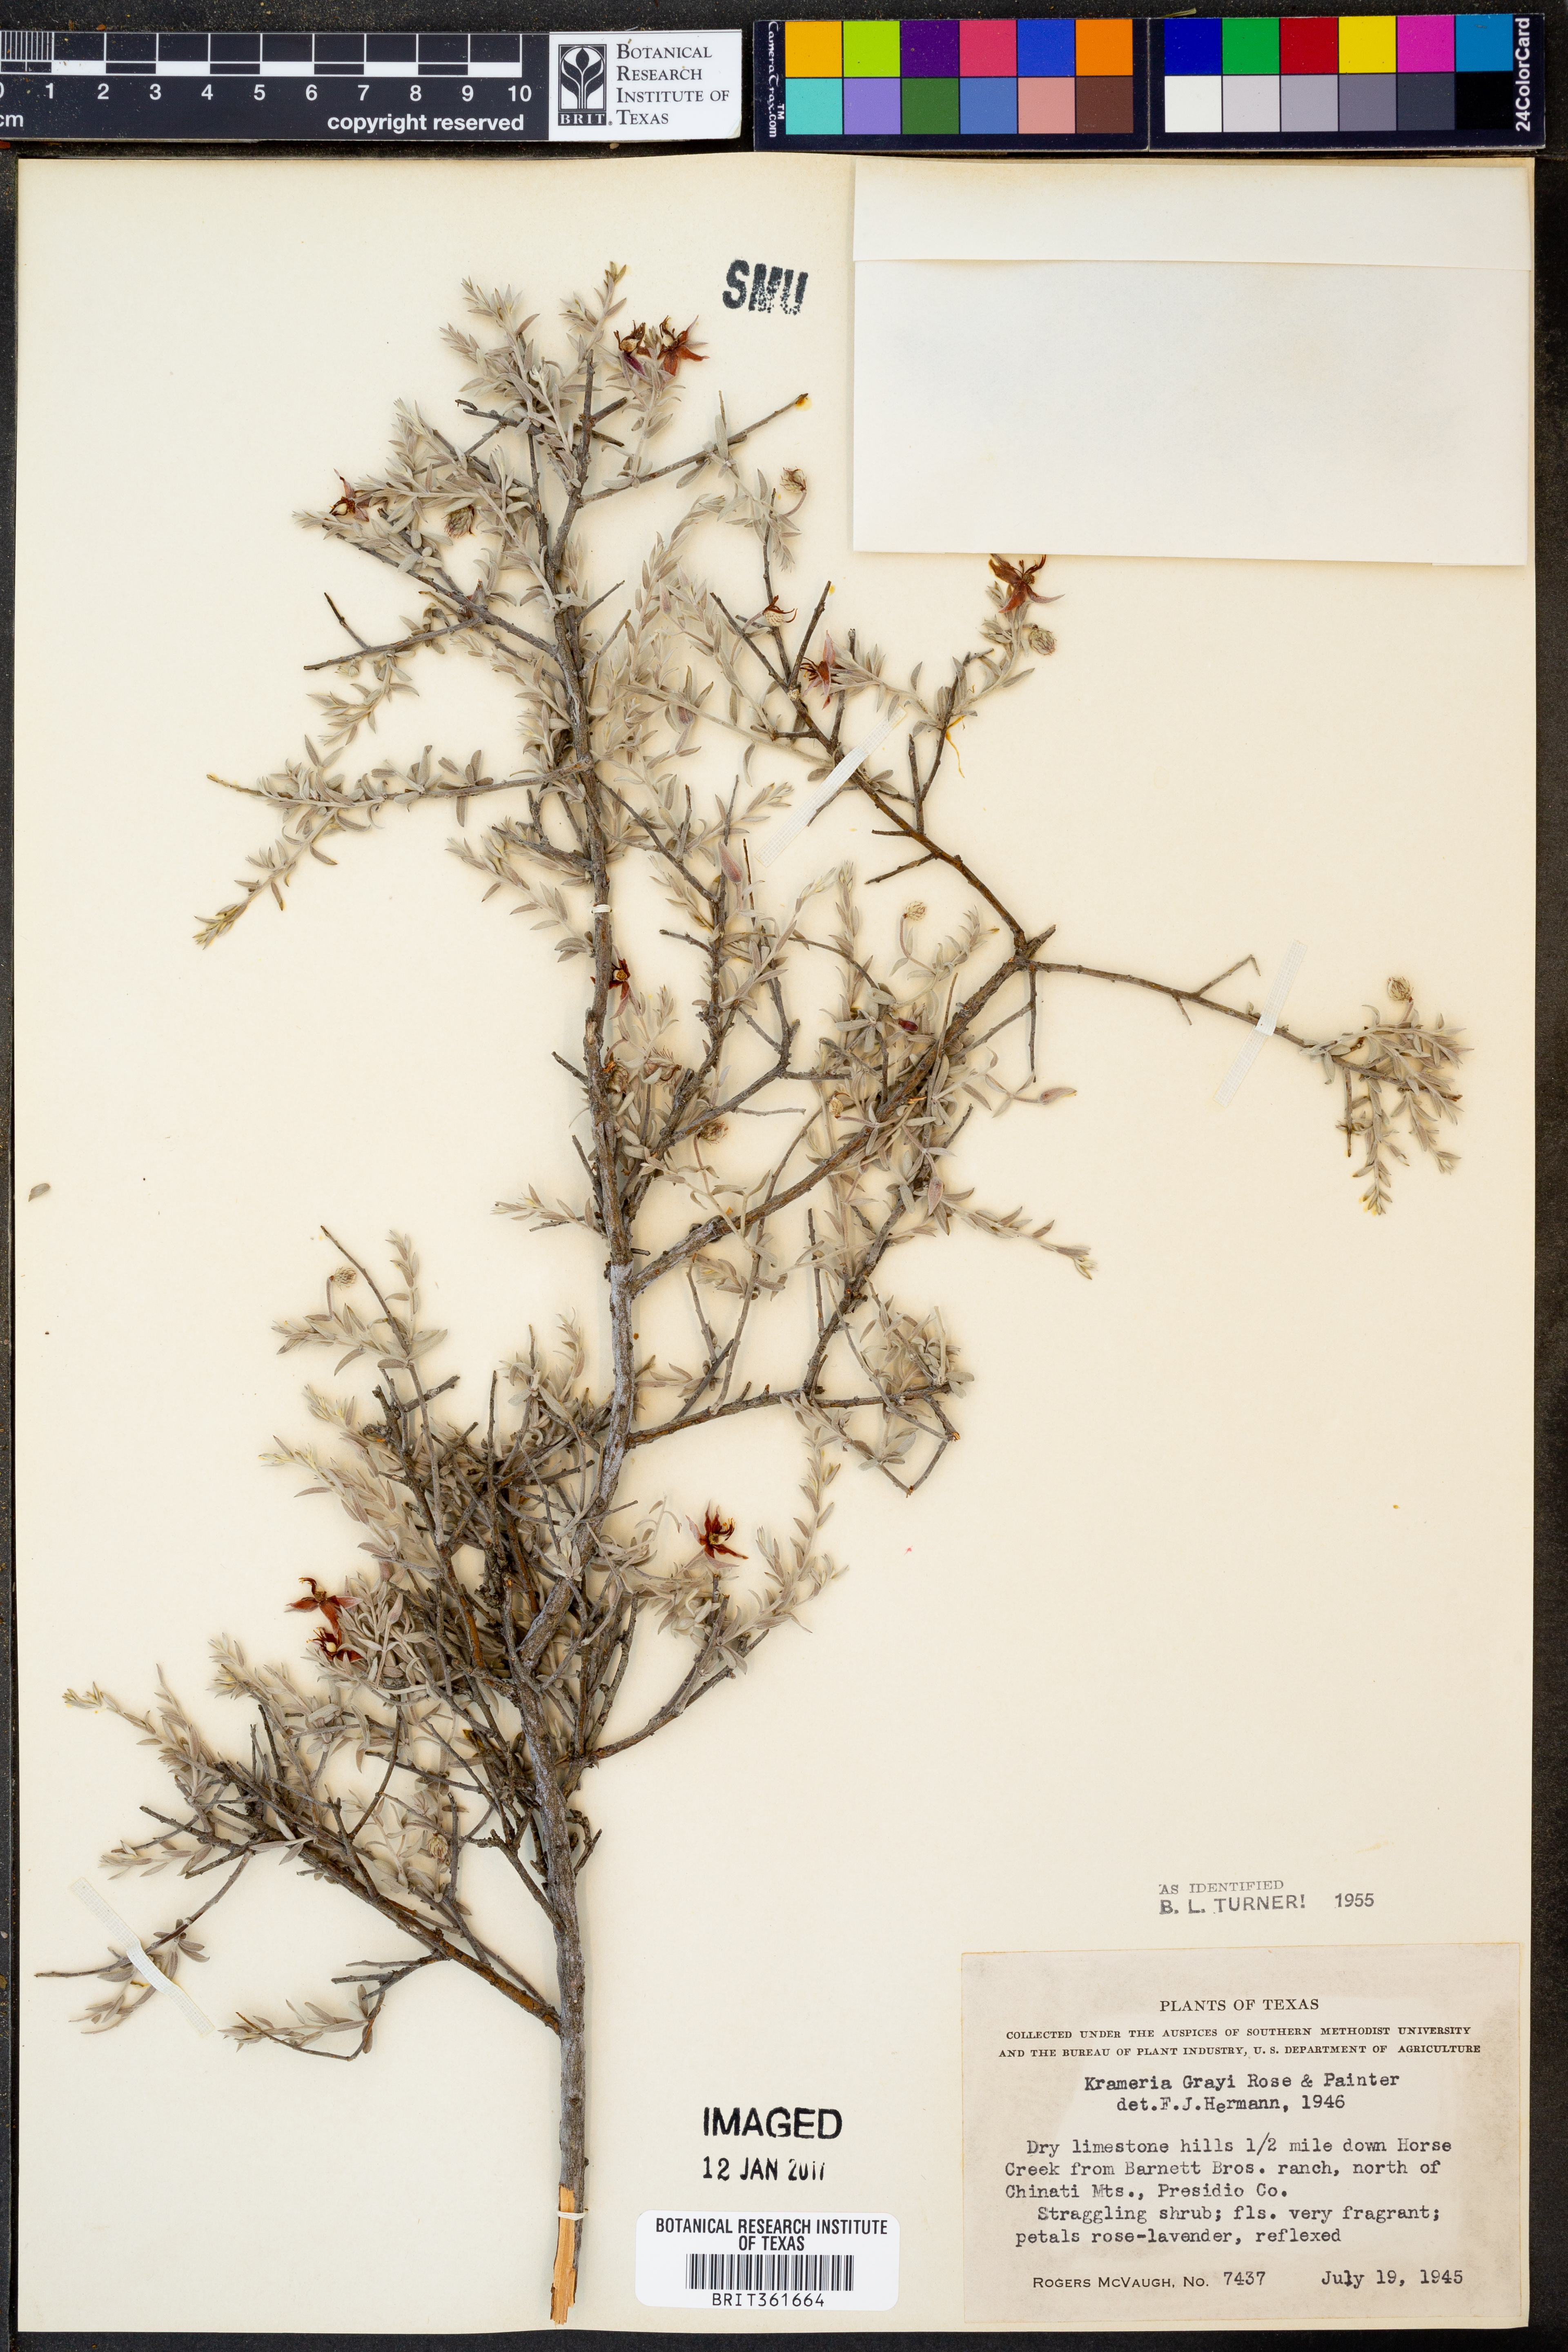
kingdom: Plantae
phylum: Tracheophyta
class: Magnoliopsida
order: Zygophyllales
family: Krameriaceae
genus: Krameria
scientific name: Krameria bicolor
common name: White ratany
